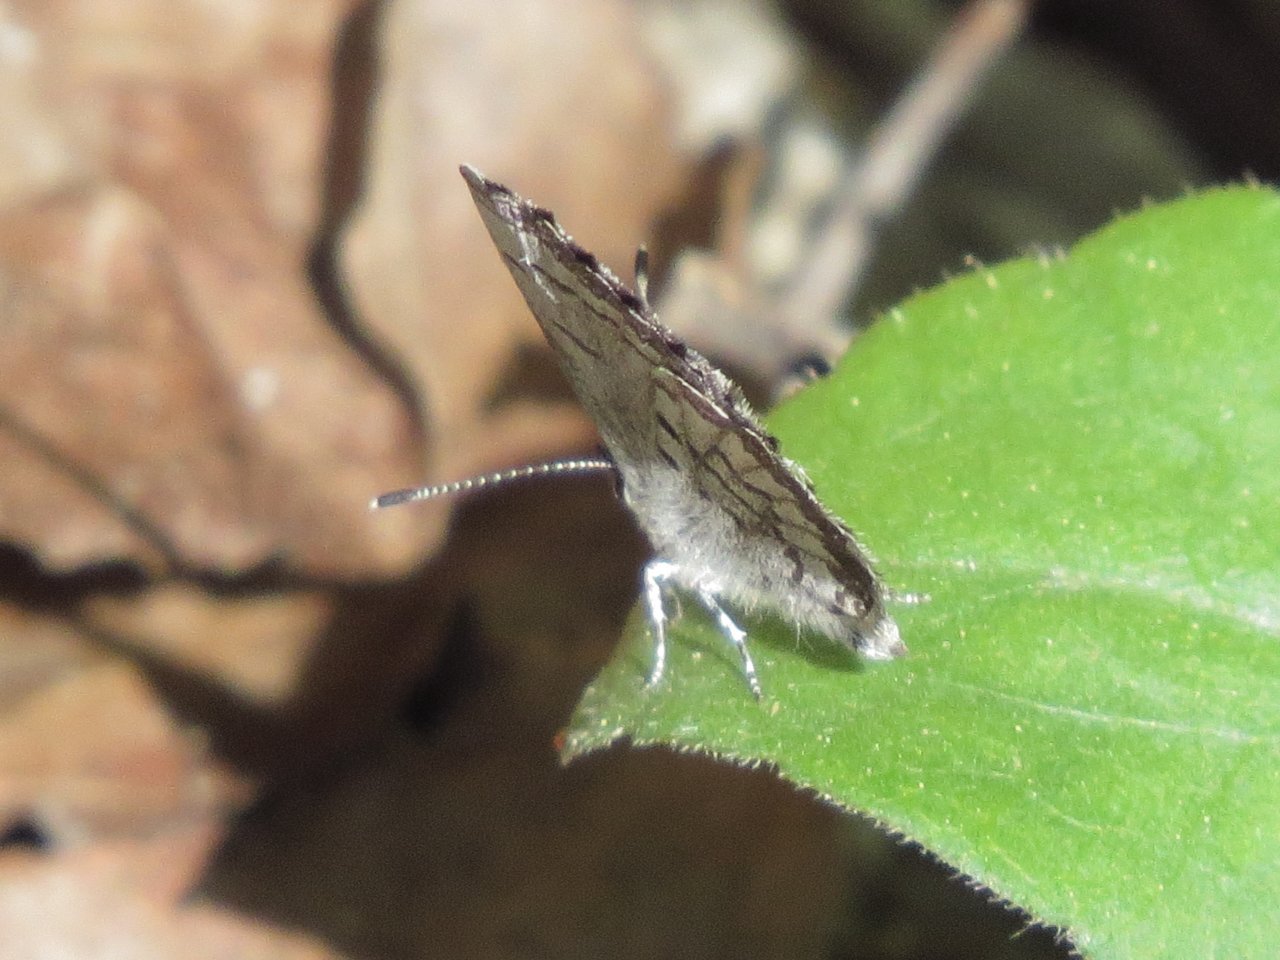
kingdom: Animalia
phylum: Arthropoda
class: Insecta
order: Lepidoptera
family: Lycaenidae
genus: Celastrina
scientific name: Celastrina lucia
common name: Northern Spring Azure
